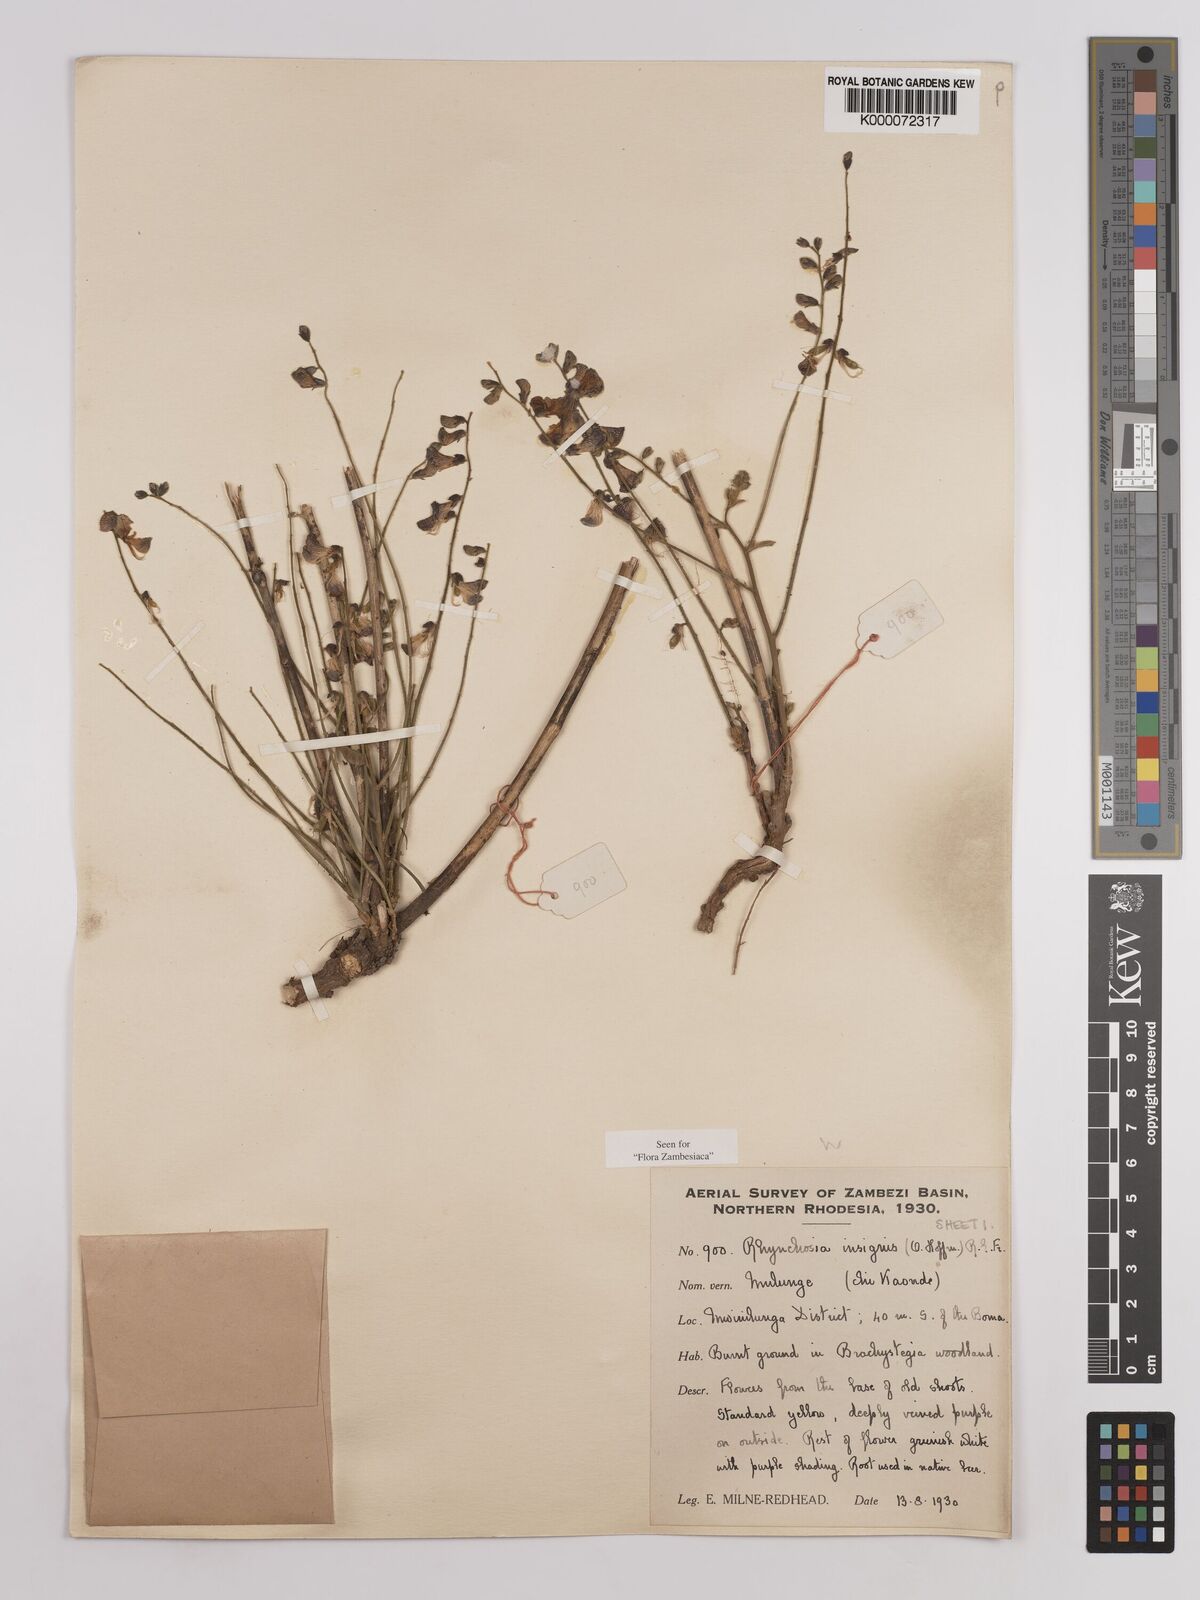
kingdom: Plantae
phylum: Tracheophyta
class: Magnoliopsida
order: Fabales
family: Fabaceae
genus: Rhynchosia
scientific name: Rhynchosia insignis
